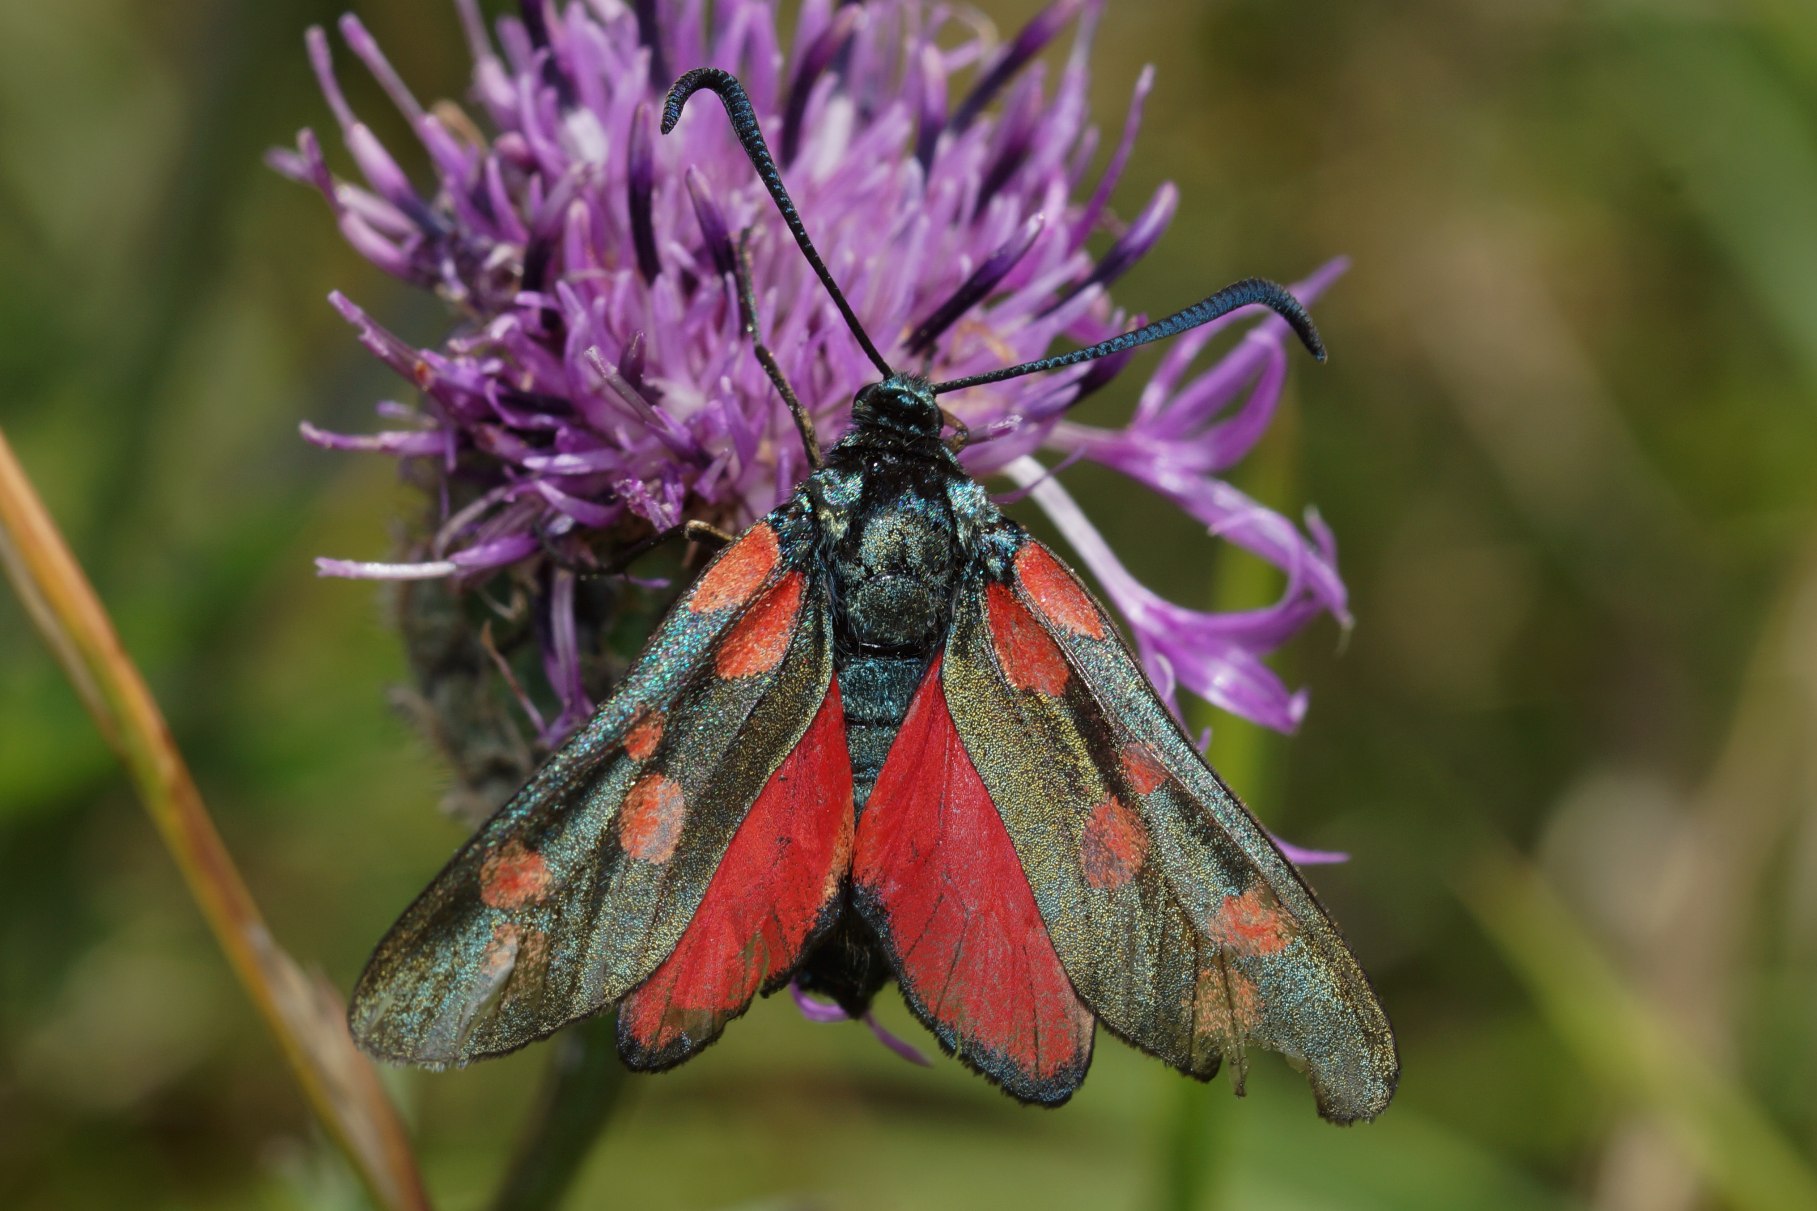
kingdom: Animalia
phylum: Arthropoda
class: Insecta
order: Lepidoptera
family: Zygaenidae
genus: Zygaena
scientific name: Zygaena filipendulae
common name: Seksplettet køllesværmer
